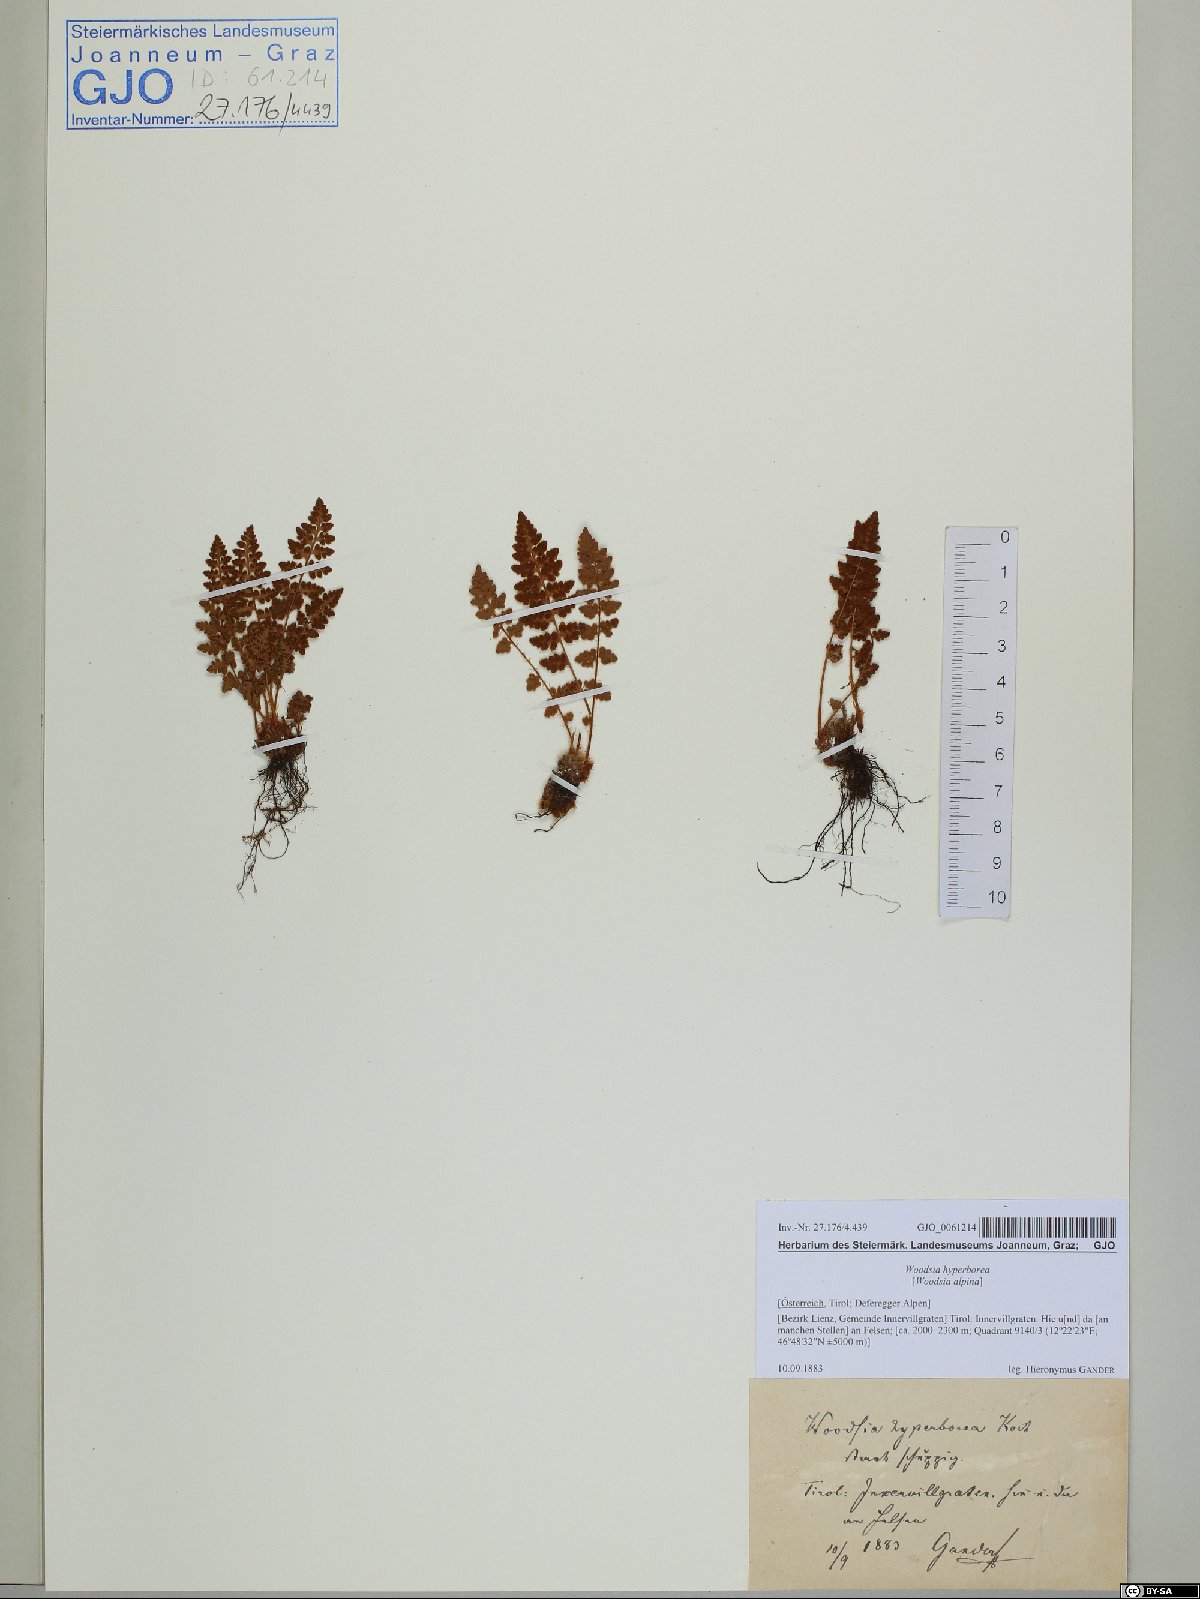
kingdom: Plantae
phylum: Tracheophyta
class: Polypodiopsida
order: Polypodiales
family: Woodsiaceae
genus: Woodsia
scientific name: Woodsia alpina
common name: Alpine woodsia
